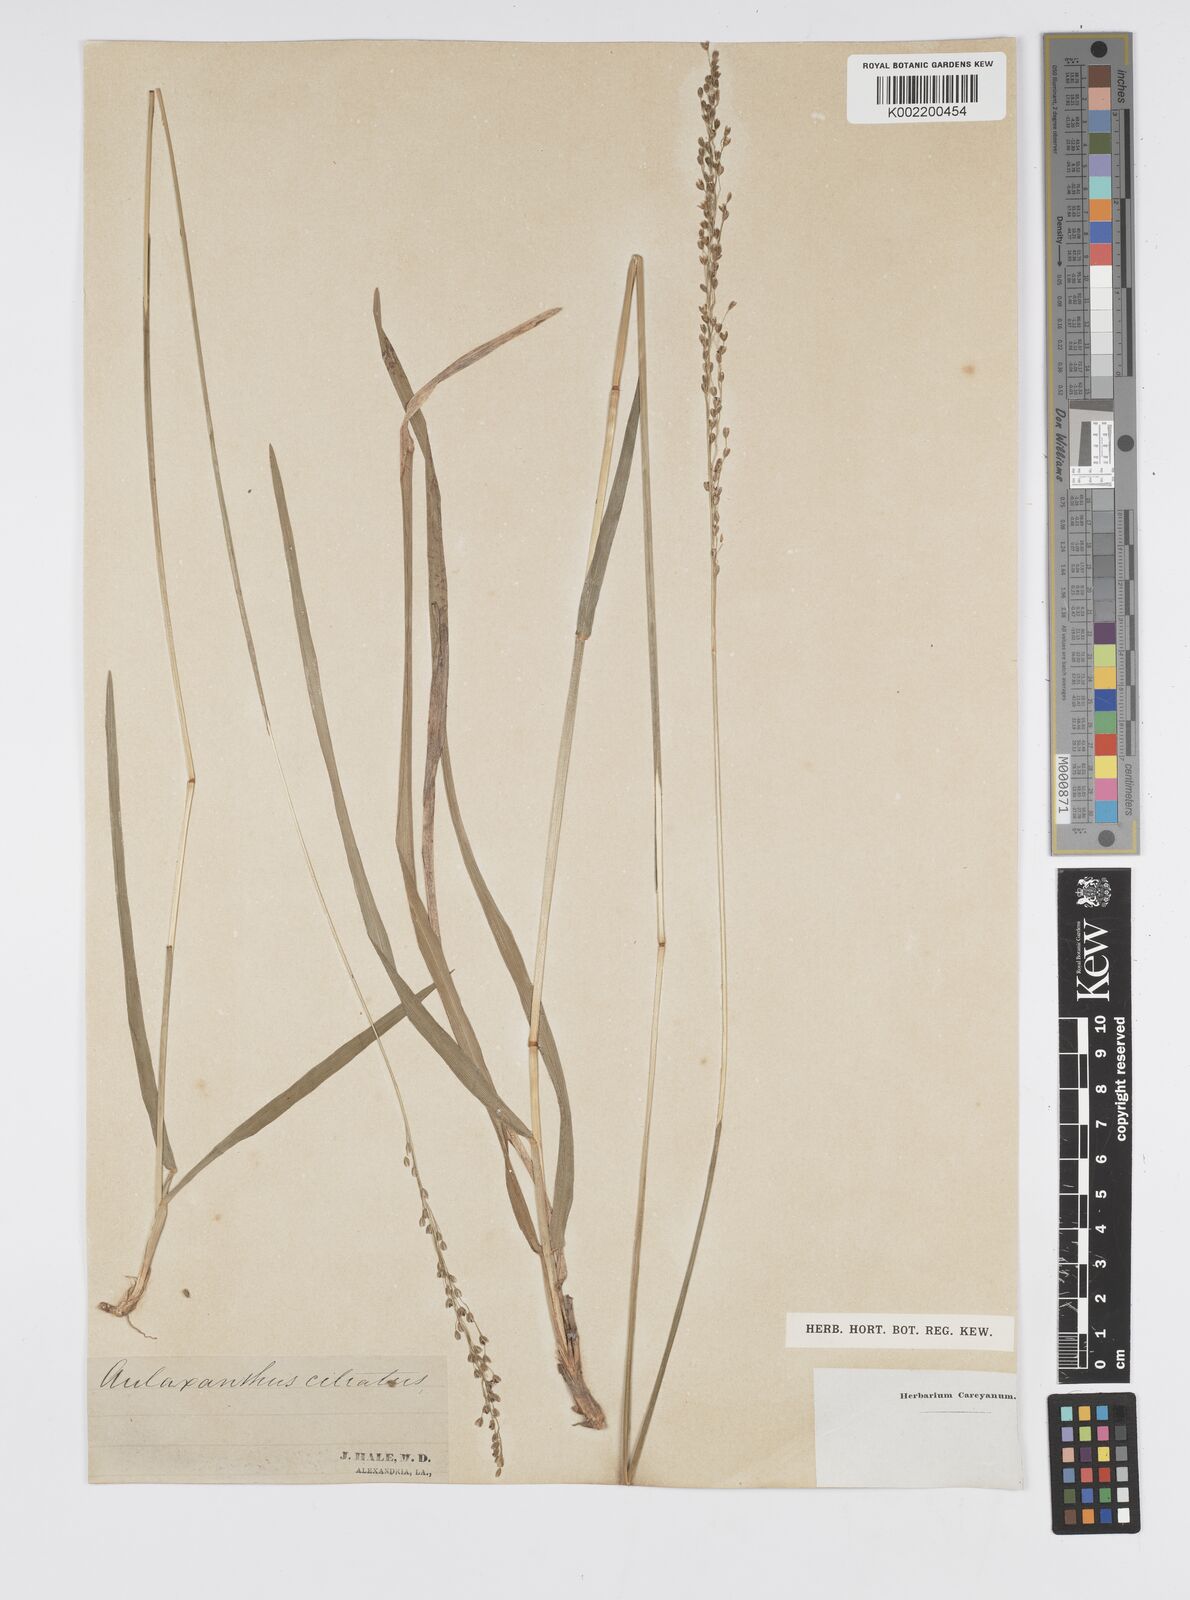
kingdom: Plantae
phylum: Tracheophyta
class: Liliopsida
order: Poales
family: Poaceae
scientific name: Poaceae
